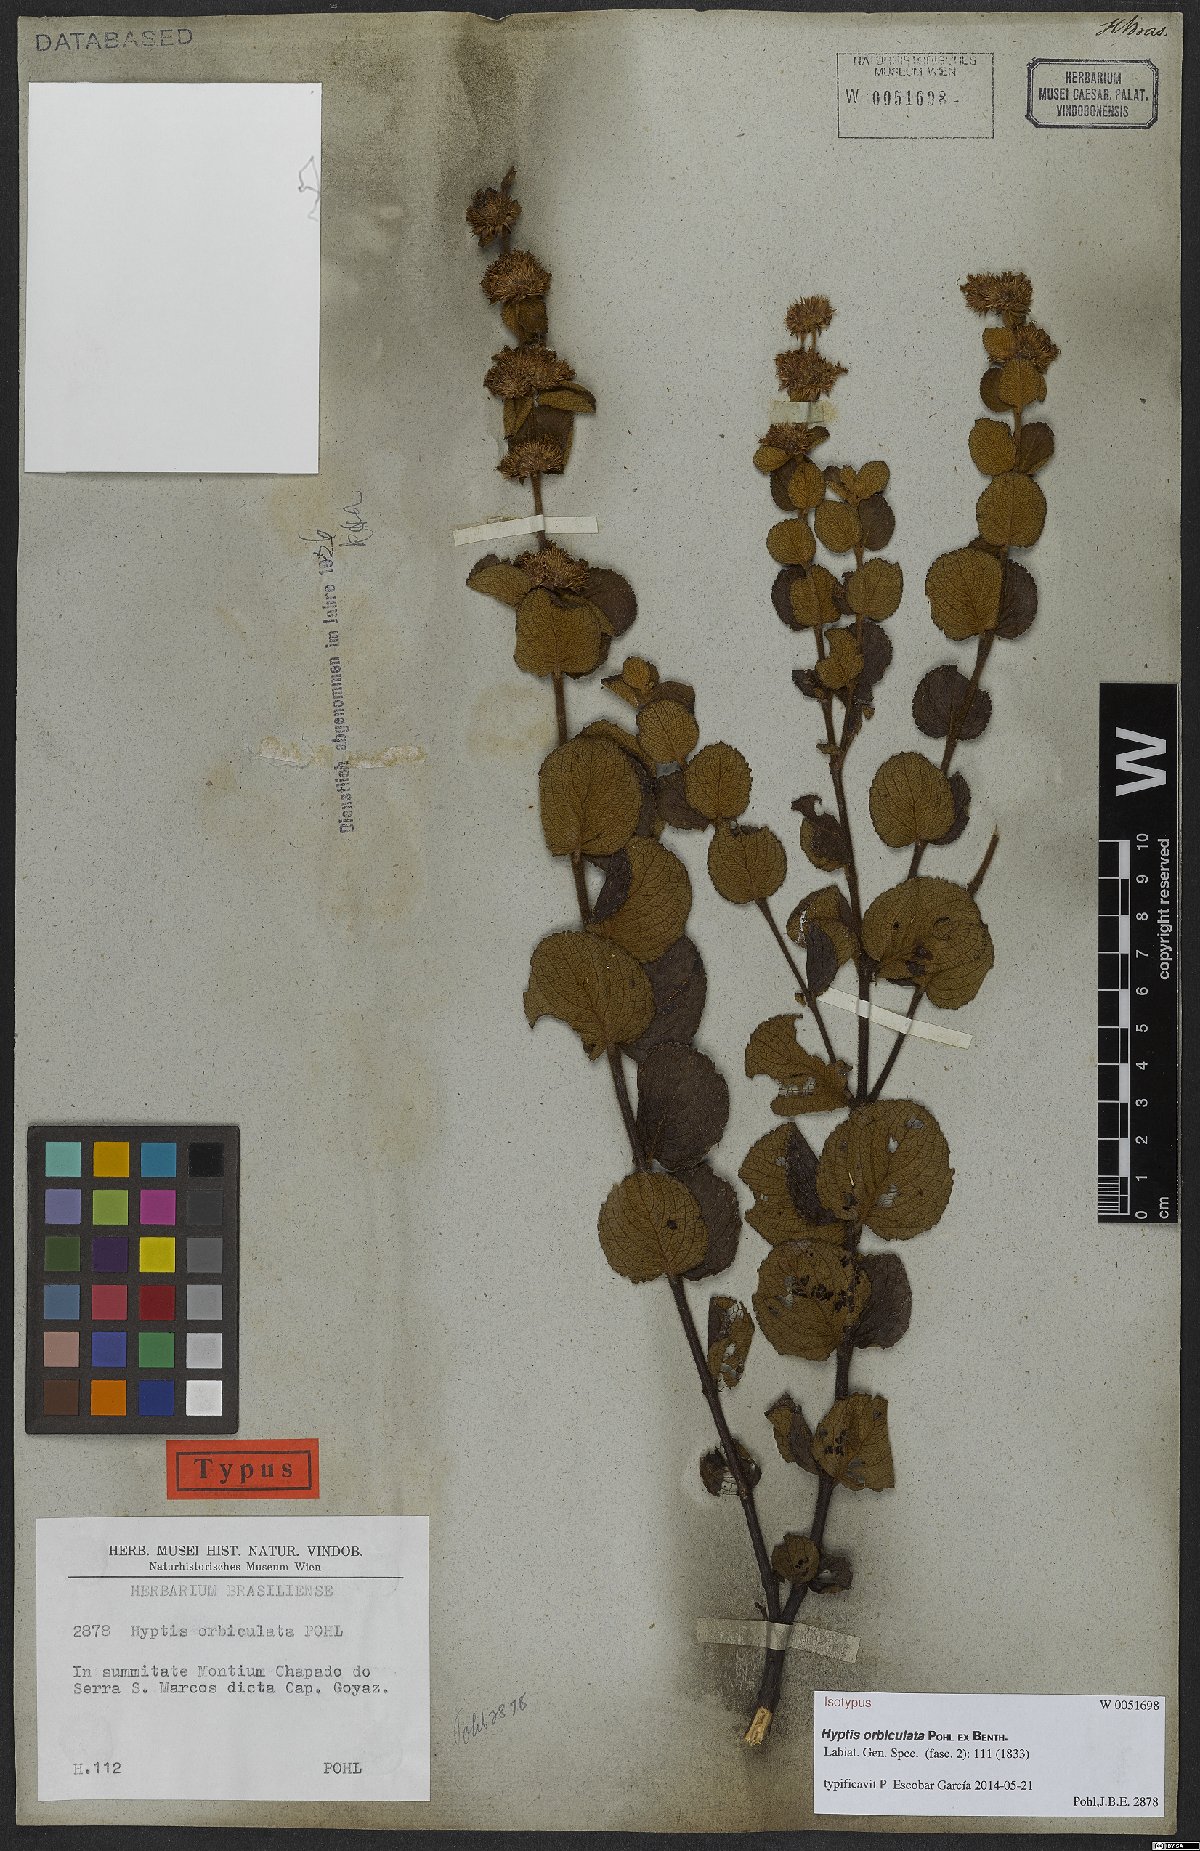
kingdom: Plantae
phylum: Tracheophyta
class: Magnoliopsida
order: Lamiales
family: Lamiaceae
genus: Hyptis
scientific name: Hyptis orbiculata
